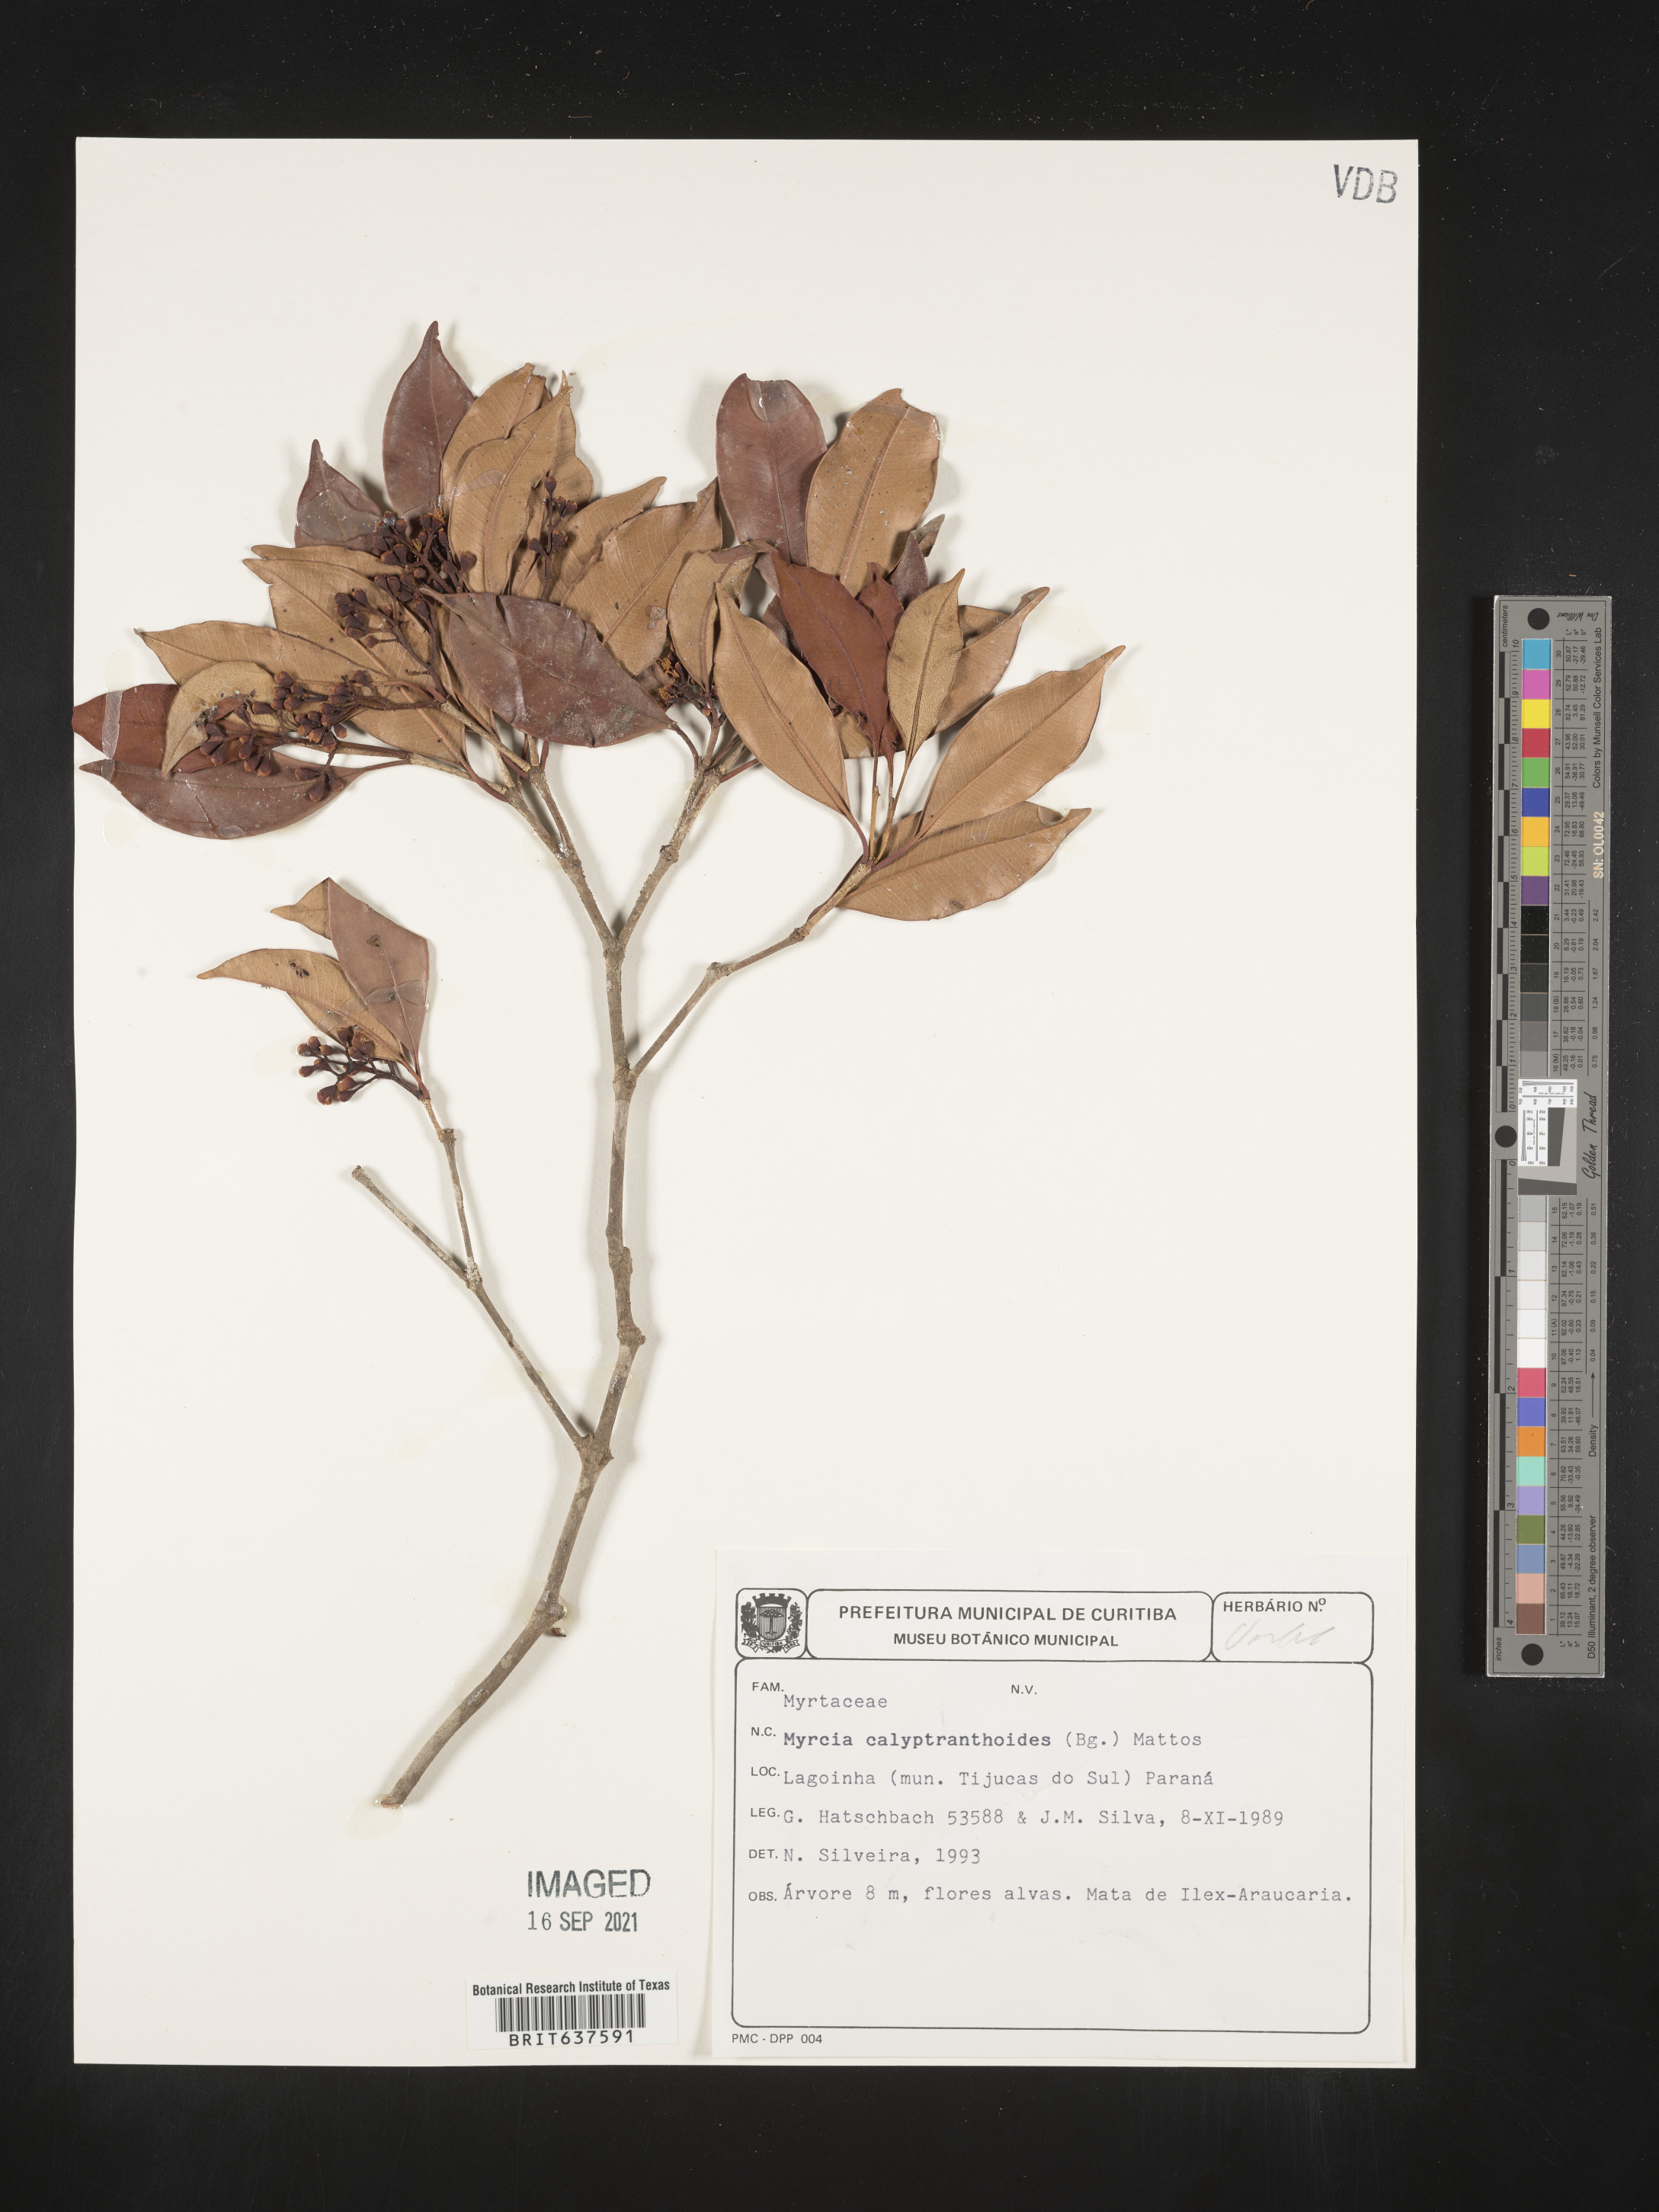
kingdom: Plantae
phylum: Tracheophyta
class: Magnoliopsida
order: Myrtales
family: Myrtaceae
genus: Myrceugenia
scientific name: Myrceugenia
